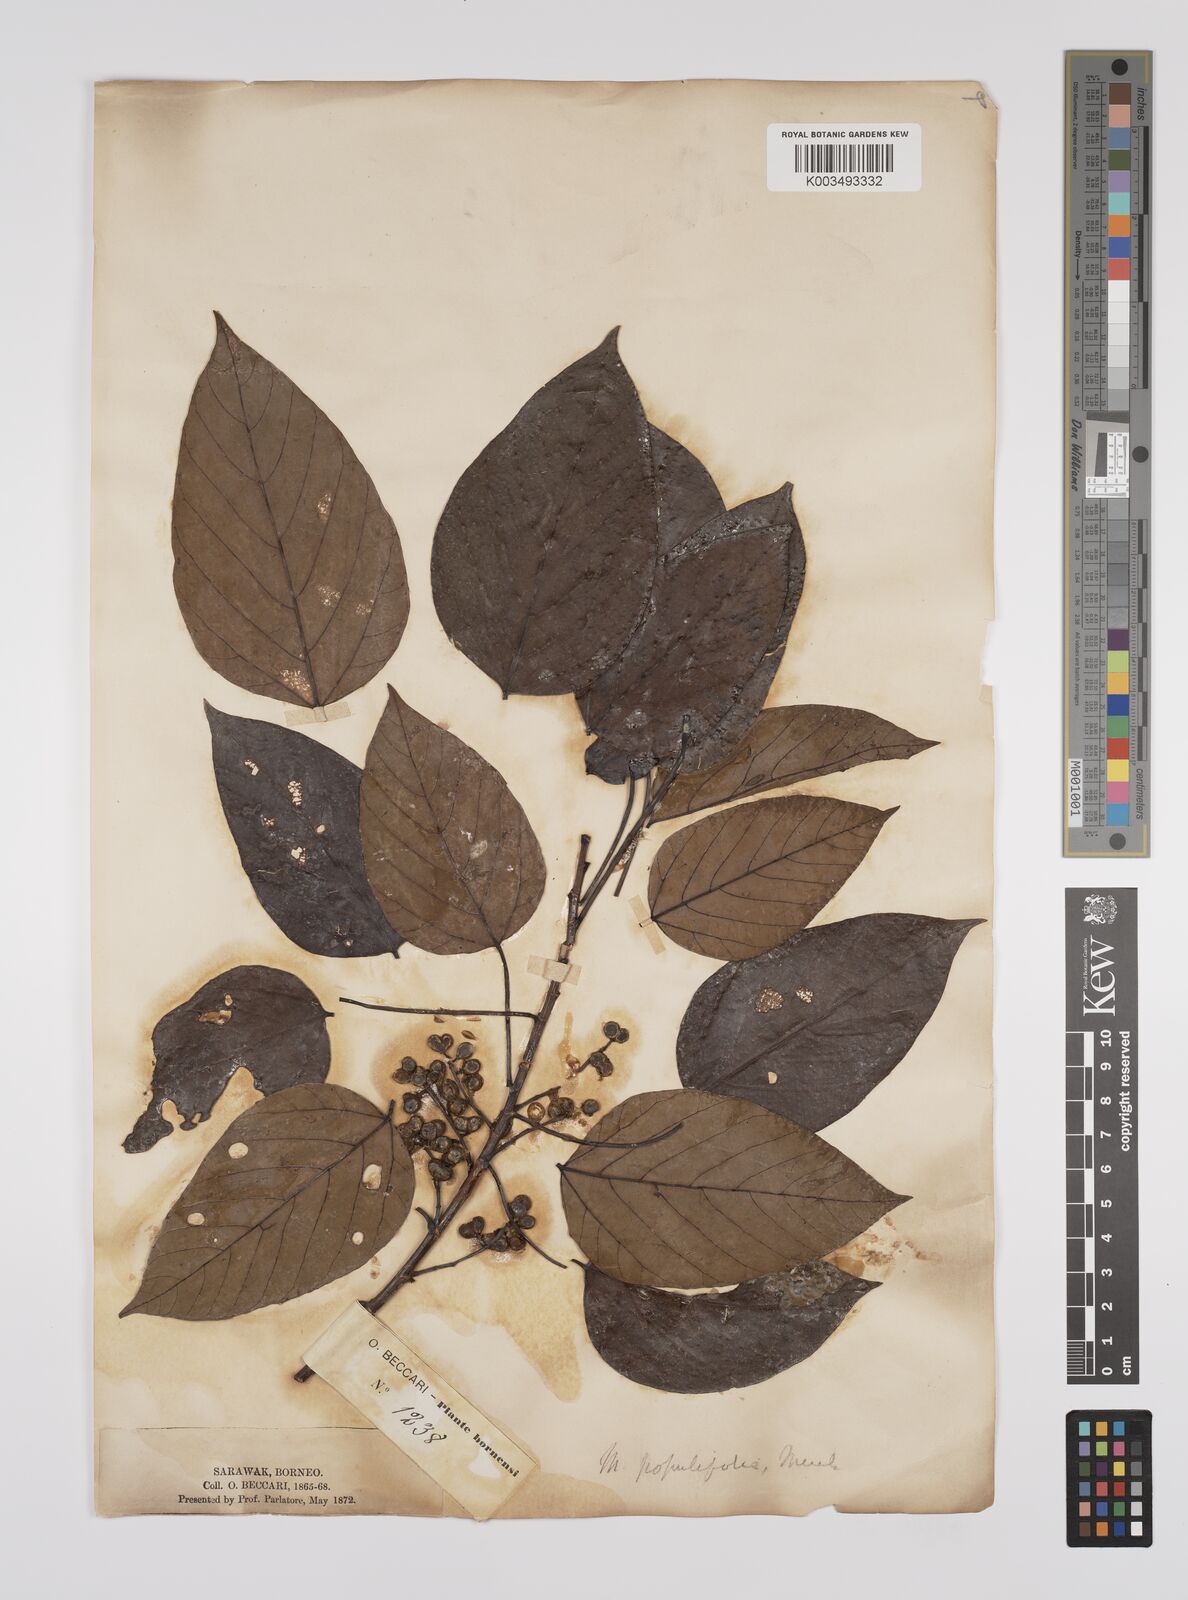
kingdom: Plantae
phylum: Tracheophyta
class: Magnoliopsida
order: Malpighiales
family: Euphorbiaceae
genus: Macaranga
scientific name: Macaranga conifera
